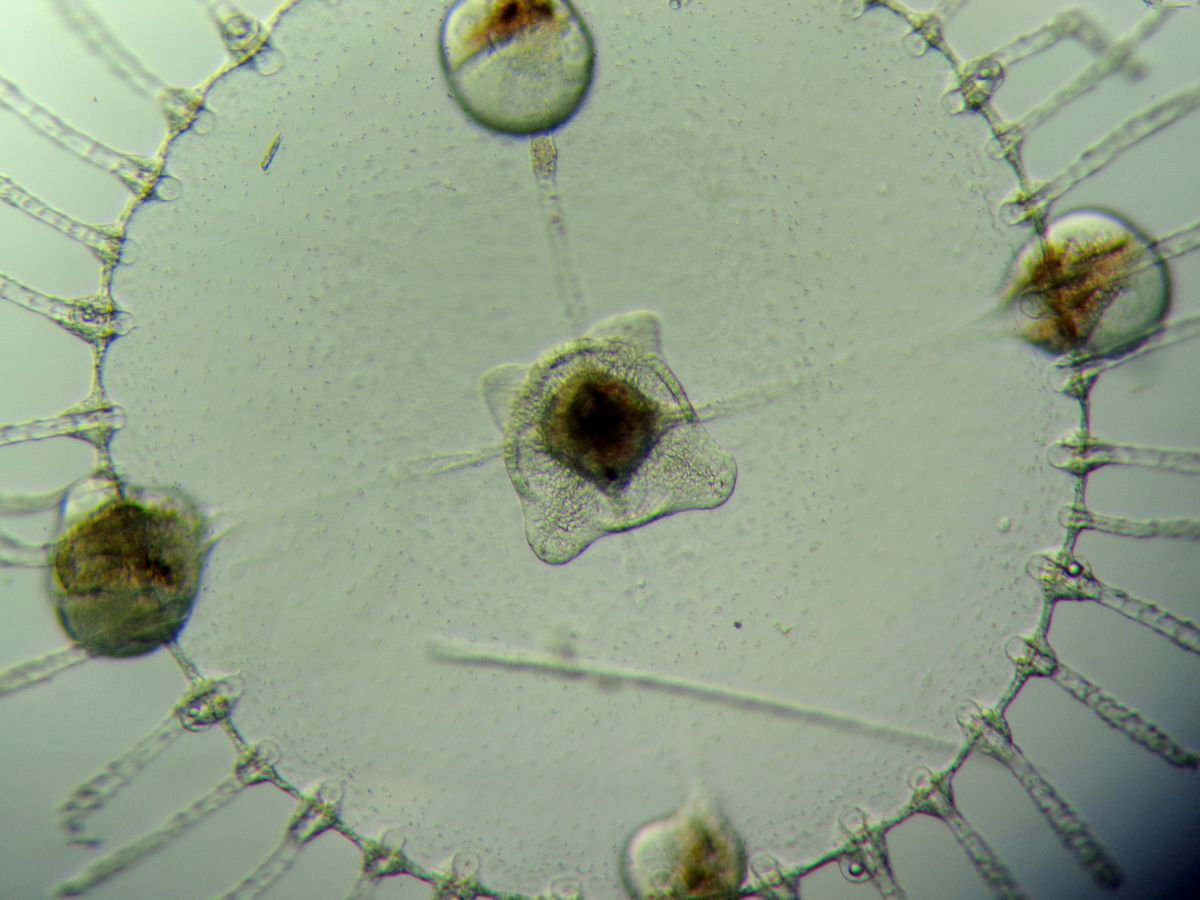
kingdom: Animalia
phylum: Cnidaria
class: Hydrozoa
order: Leptothecata
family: Campanulariidae
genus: Obelia
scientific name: Obelia longissima
